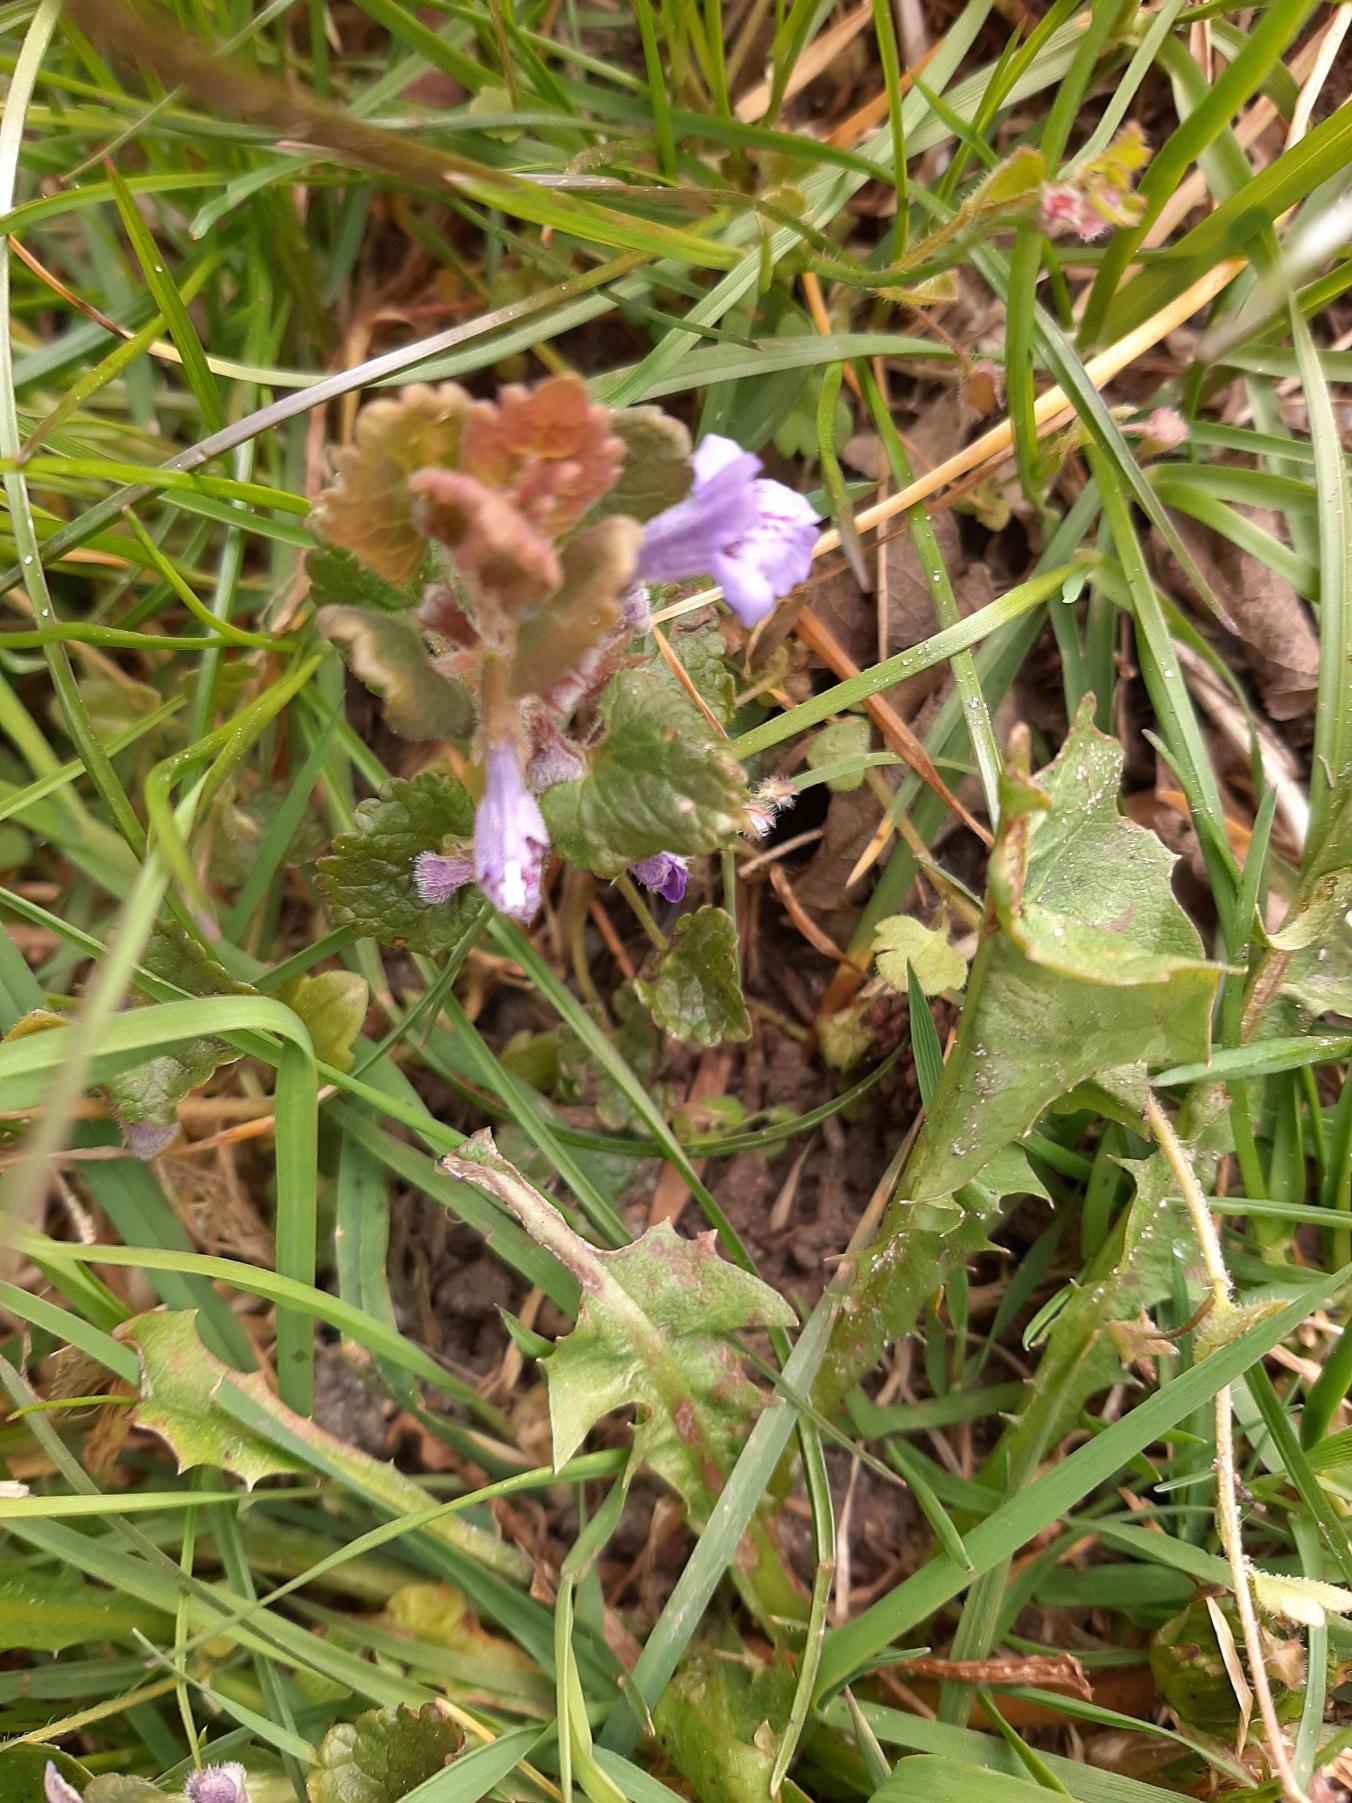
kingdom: Plantae
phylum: Tracheophyta
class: Magnoliopsida
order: Lamiales
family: Lamiaceae
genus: Glechoma
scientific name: Glechoma hederacea
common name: Korsknap
